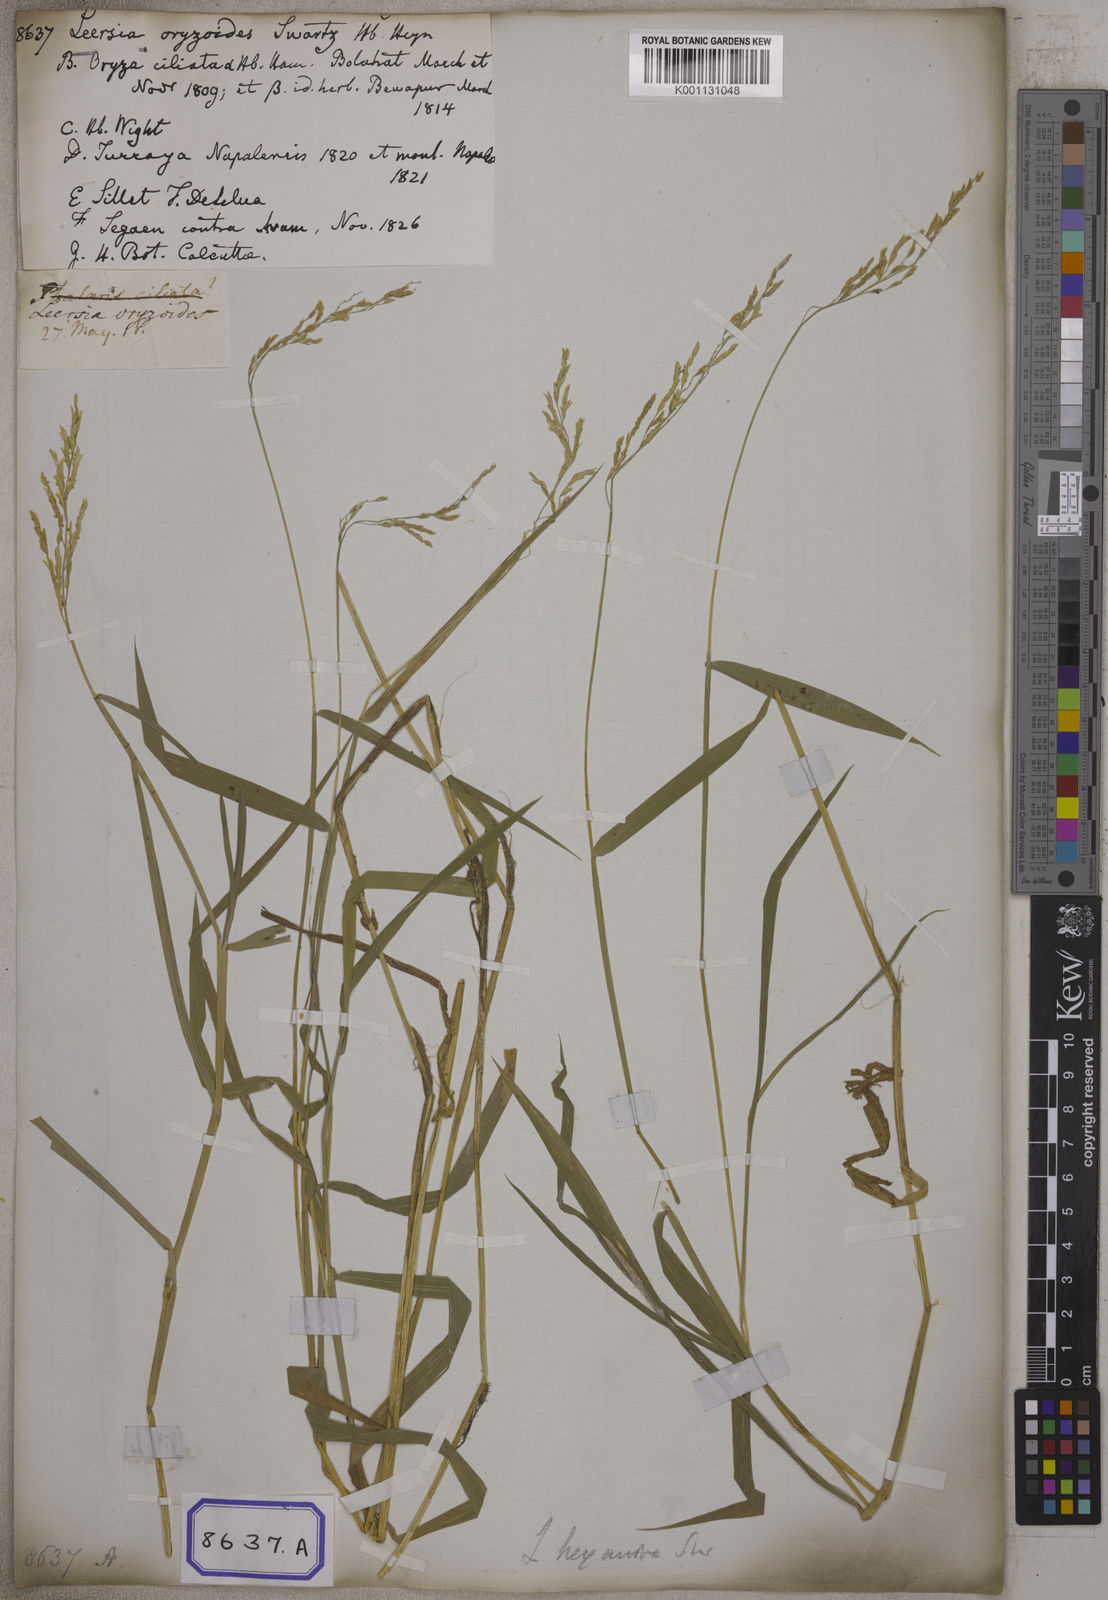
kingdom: Plantae
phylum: Tracheophyta
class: Liliopsida
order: Poales
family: Poaceae
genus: Leersia
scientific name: Leersia oryzoides
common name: Cut-grass
